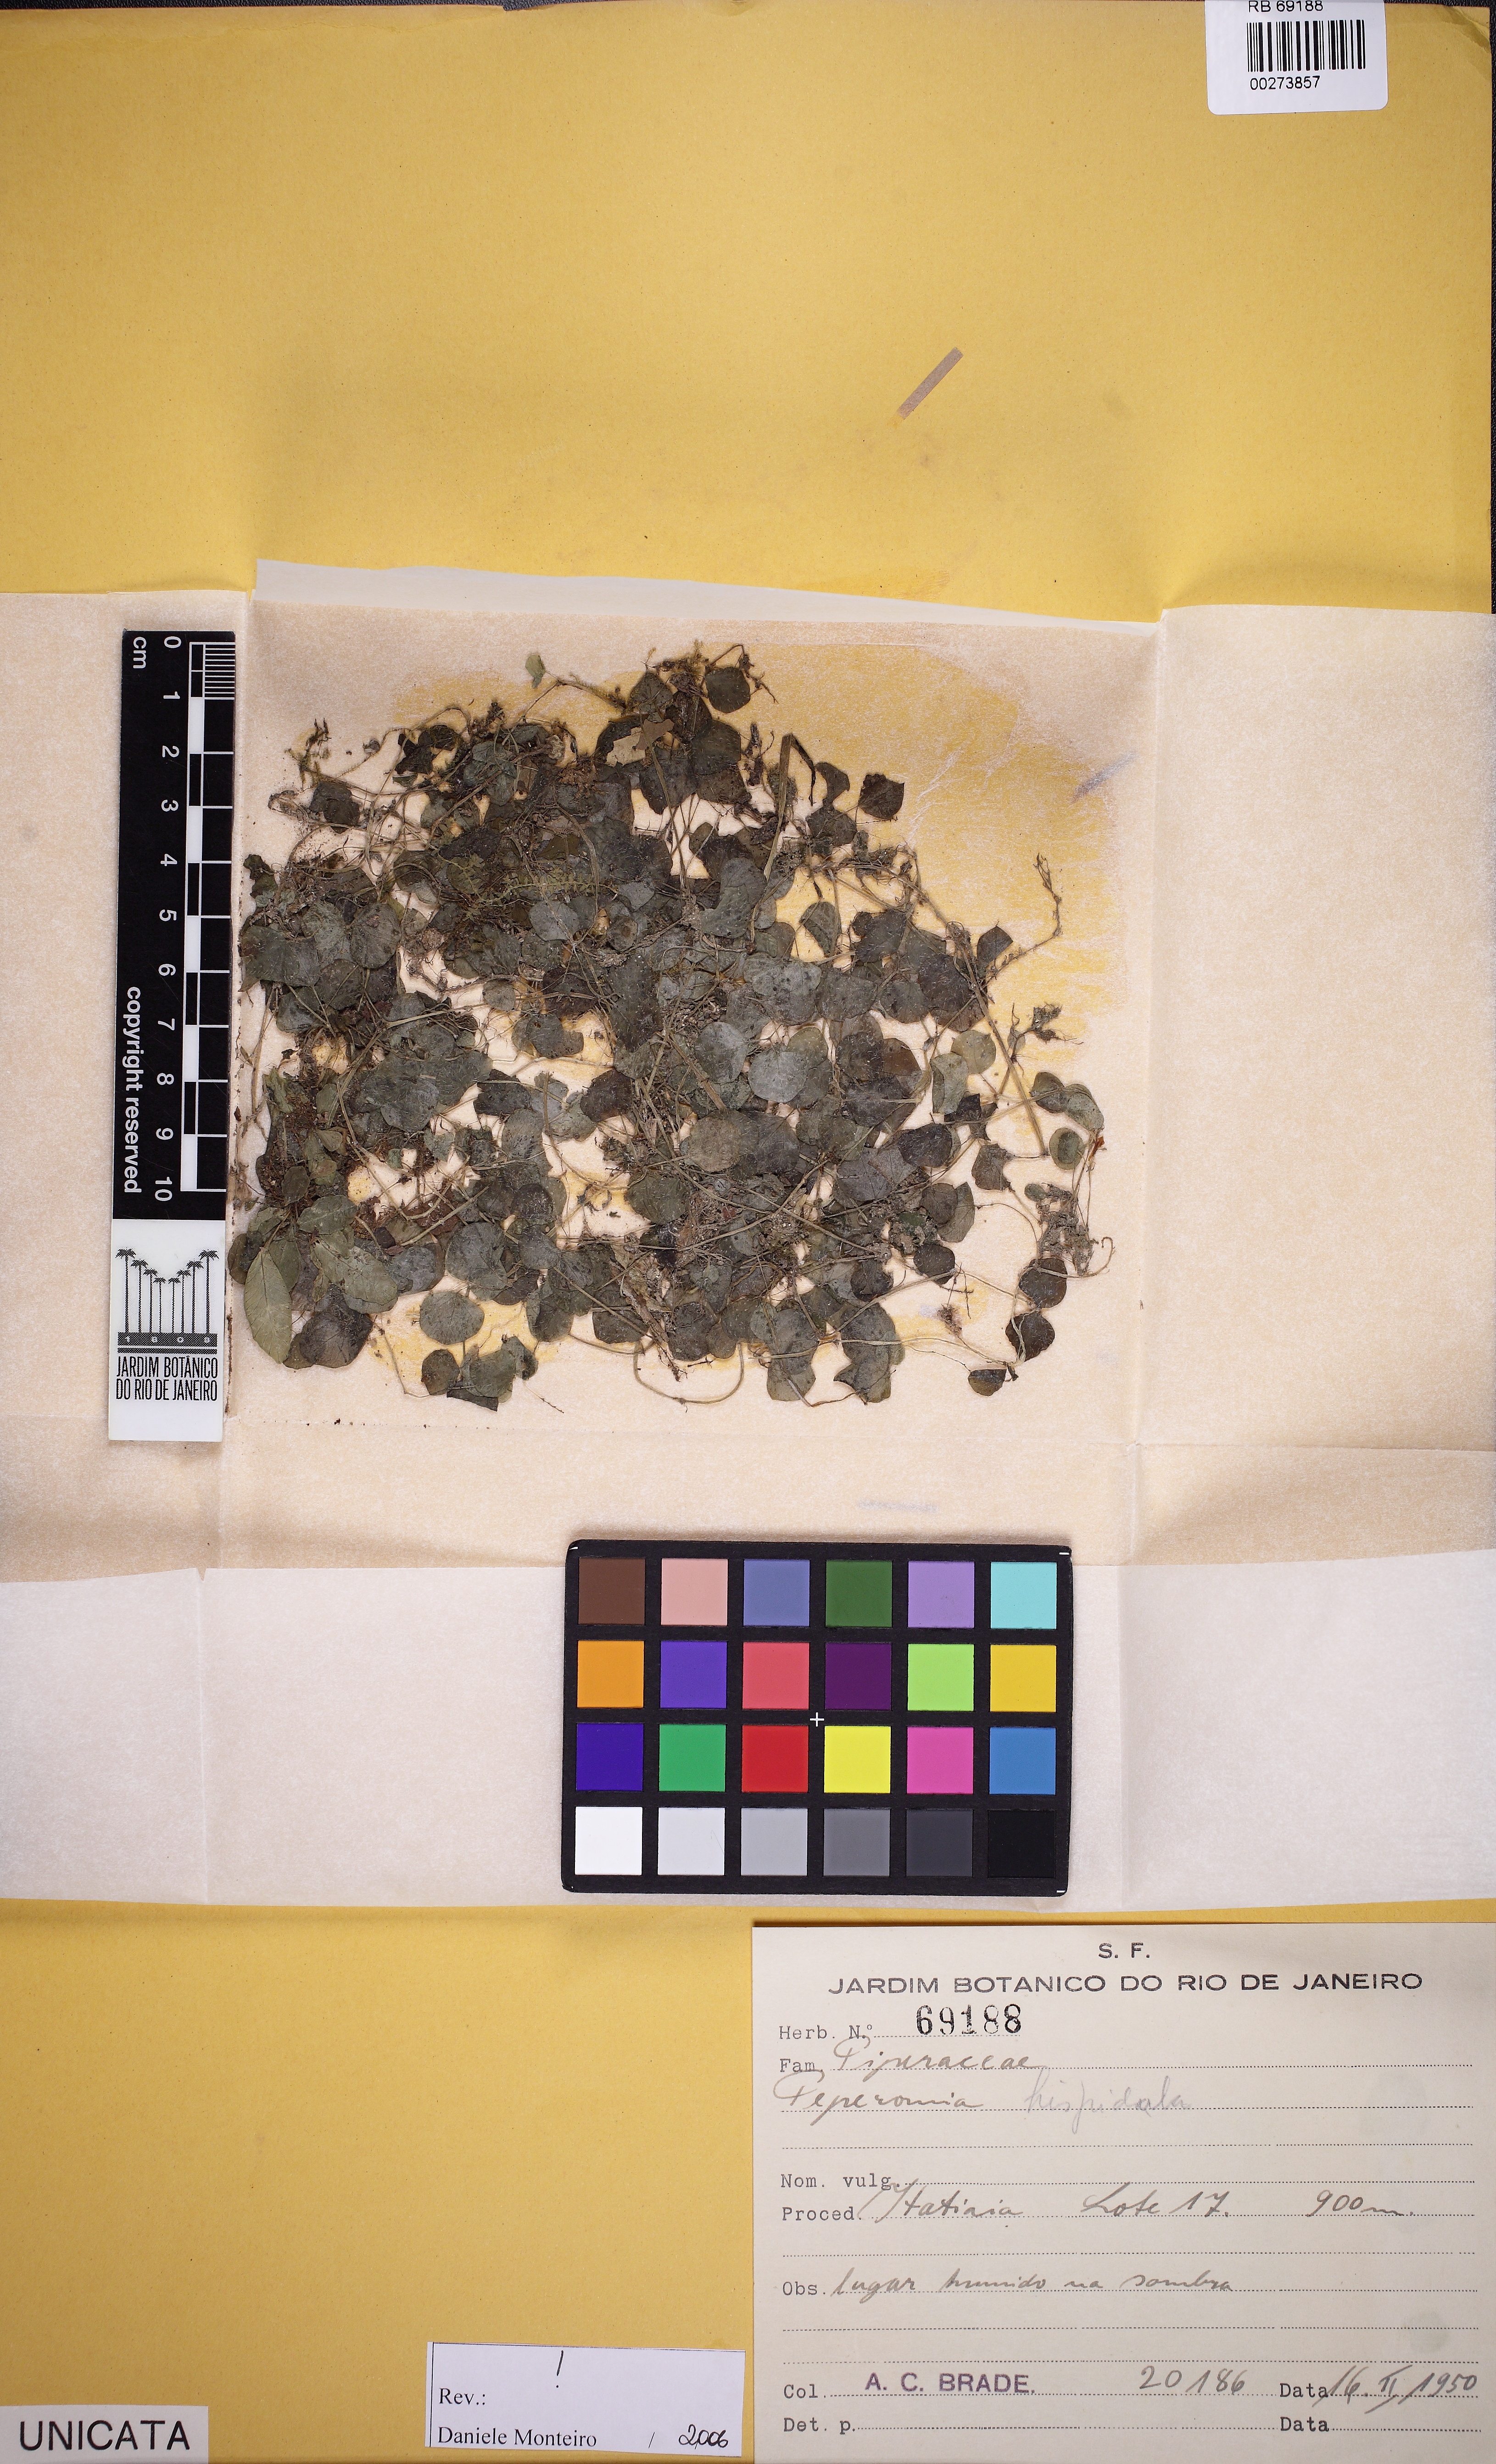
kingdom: Plantae
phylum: Tracheophyta
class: Magnoliopsida
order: Piperales
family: Piperaceae
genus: Peperomia
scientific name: Peperomia hispidula
